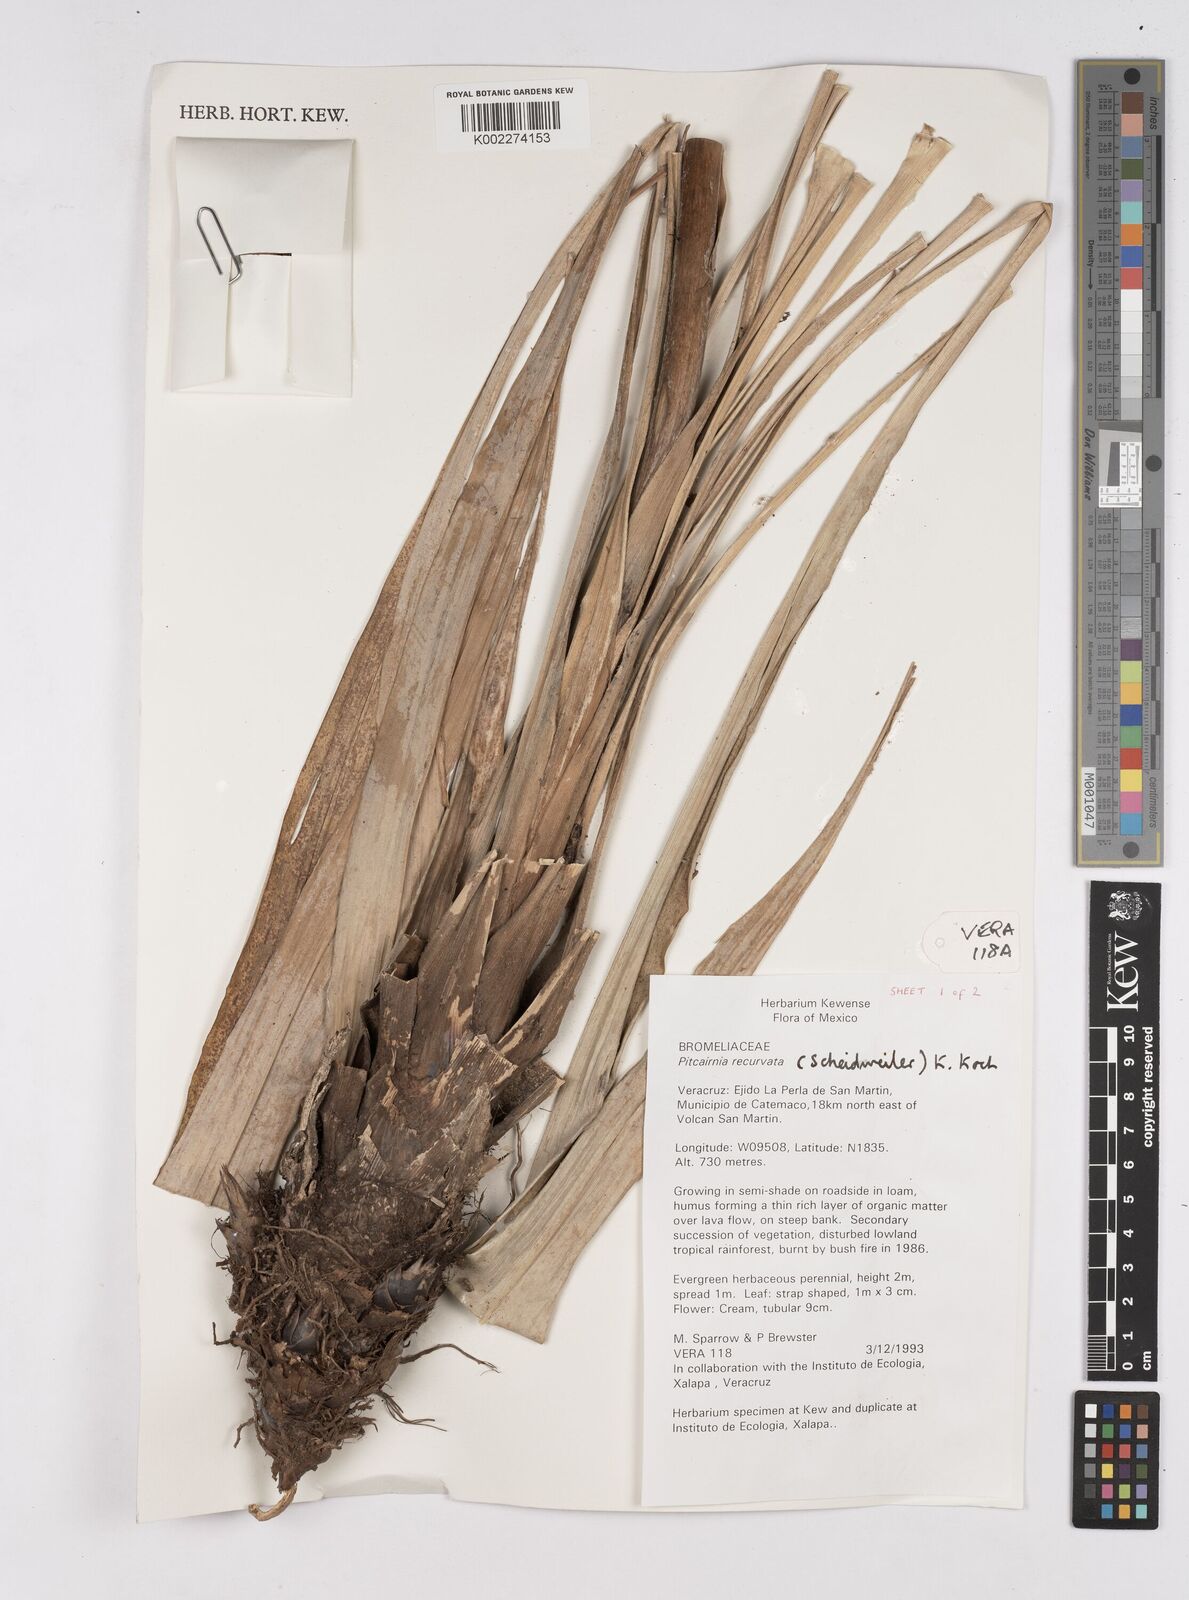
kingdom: Plantae
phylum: Tracheophyta
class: Liliopsida
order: Poales
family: Bromeliaceae
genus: Pitcairnia
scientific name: Pitcairnia recurvata
